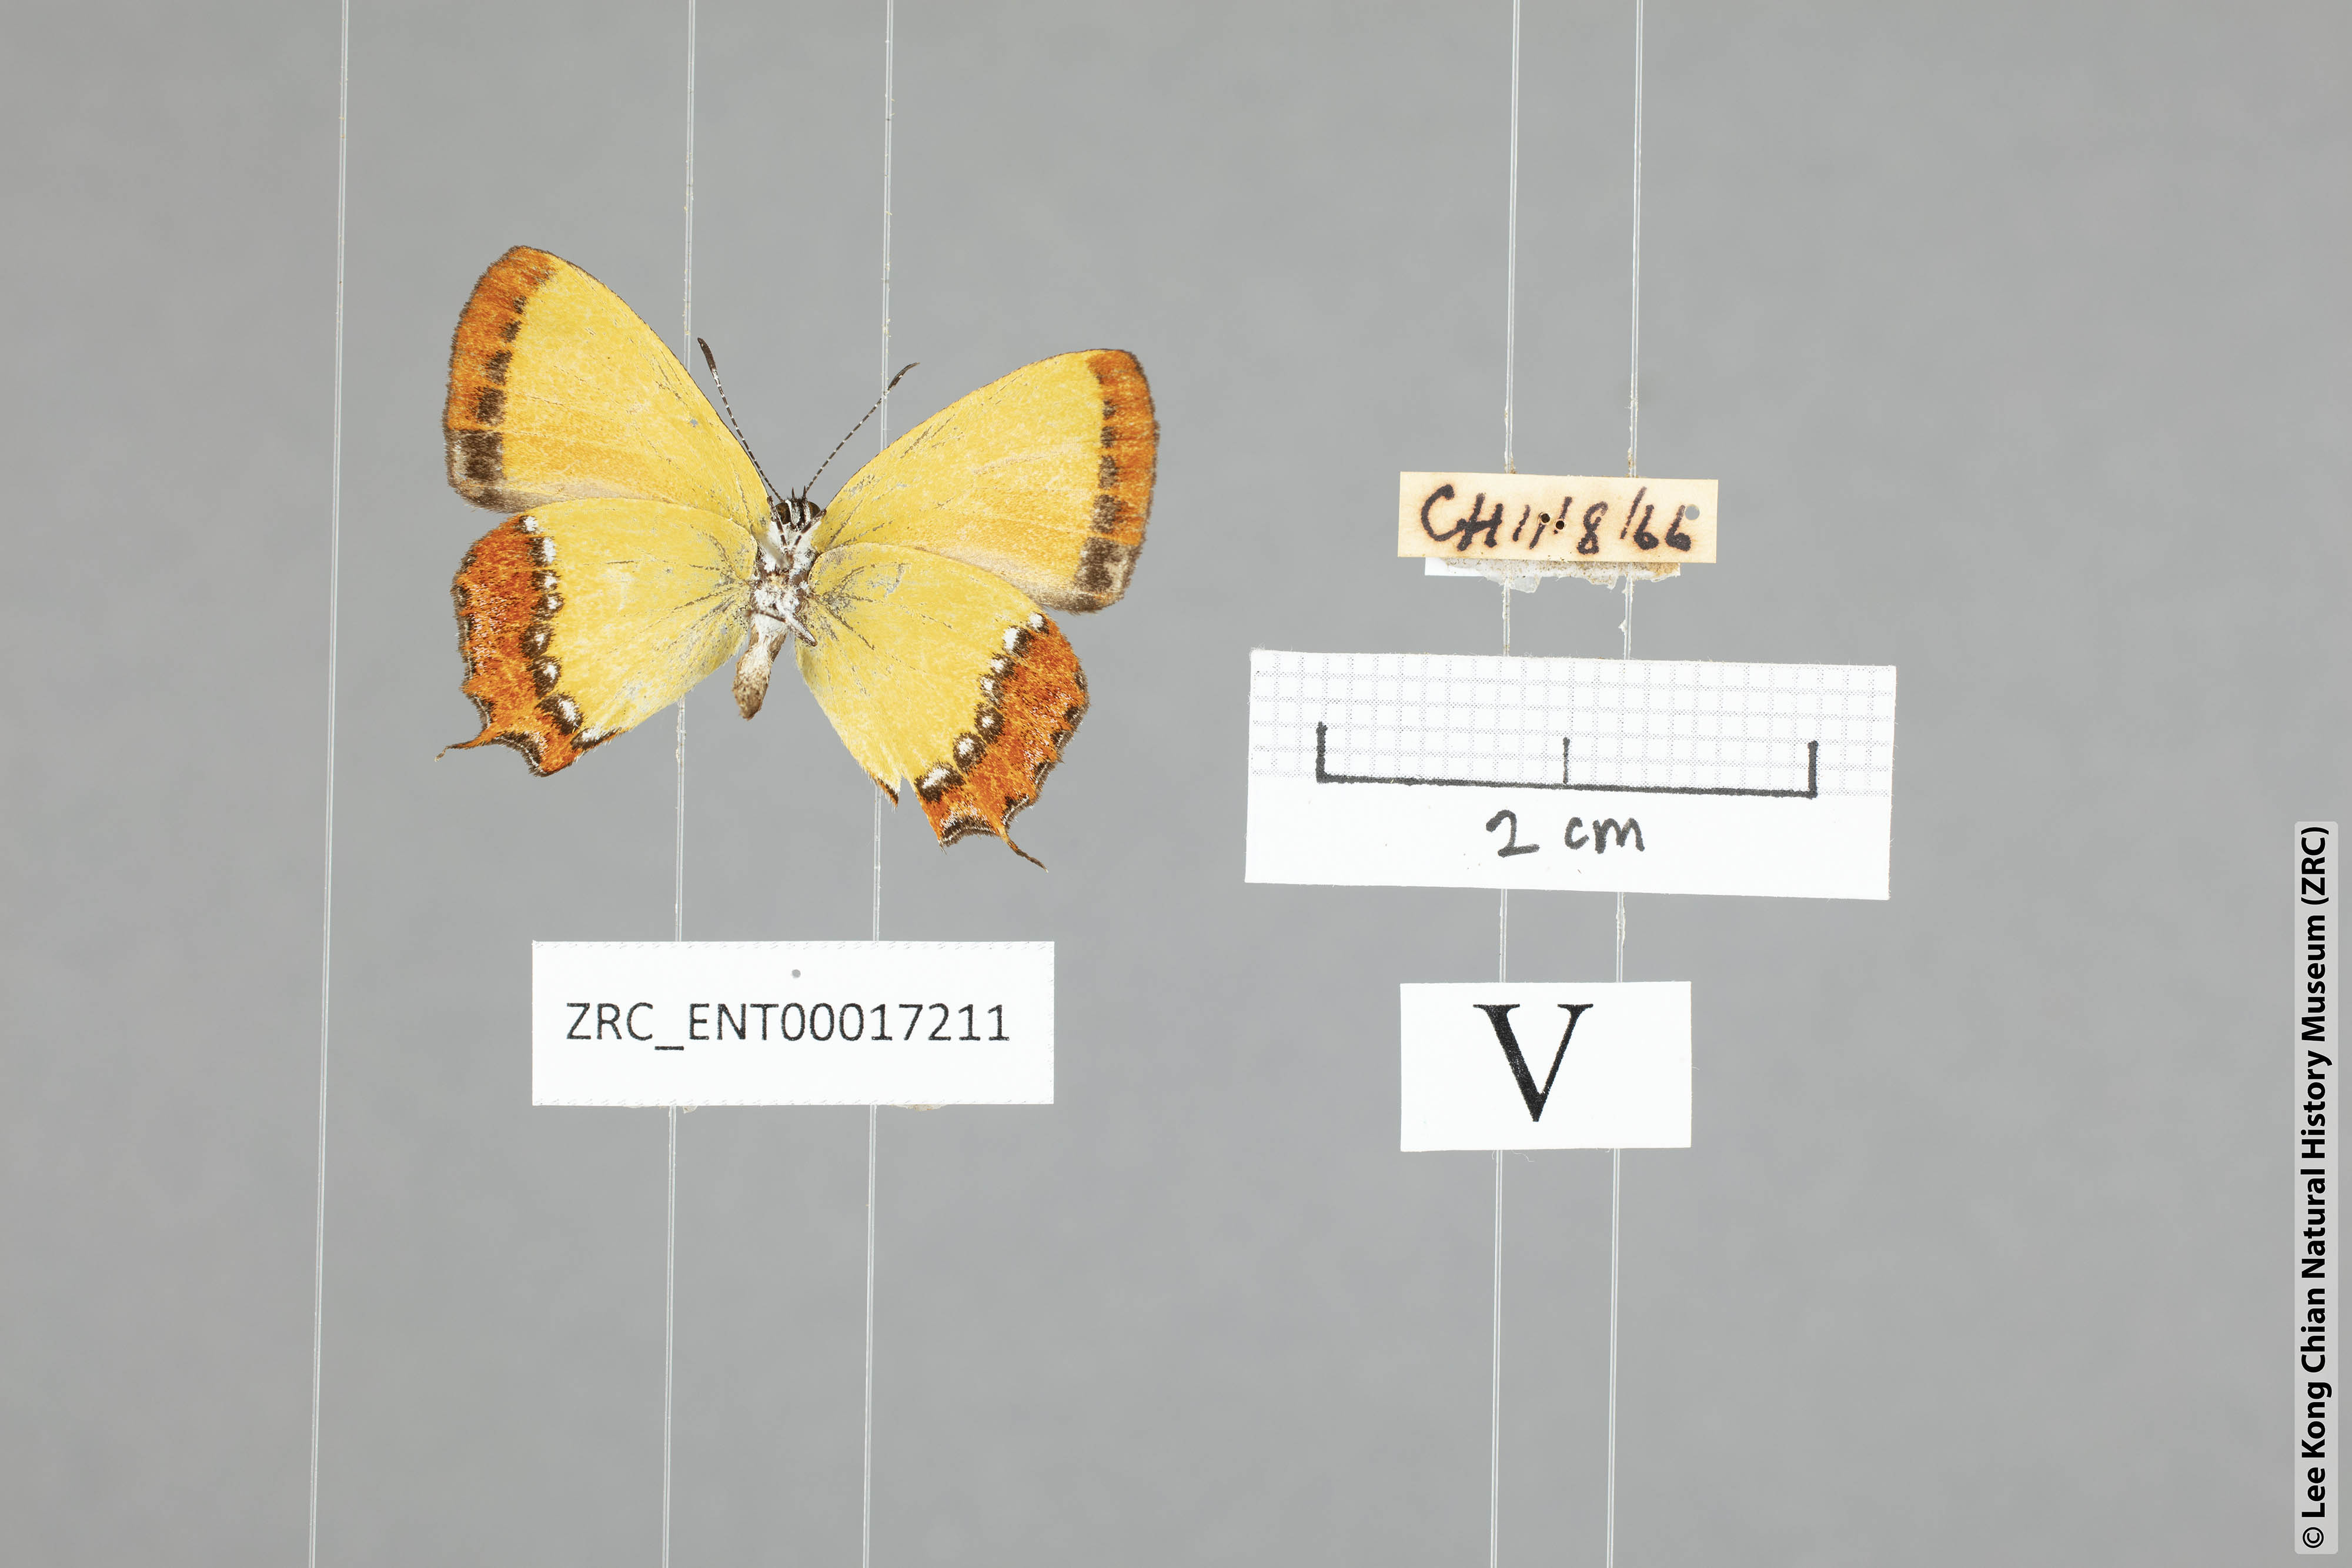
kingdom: Animalia
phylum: Arthropoda
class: Insecta
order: Lepidoptera
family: Lycaenidae
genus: Heliophorus
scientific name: Heliophorus ila
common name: Restricted purple sapphire
